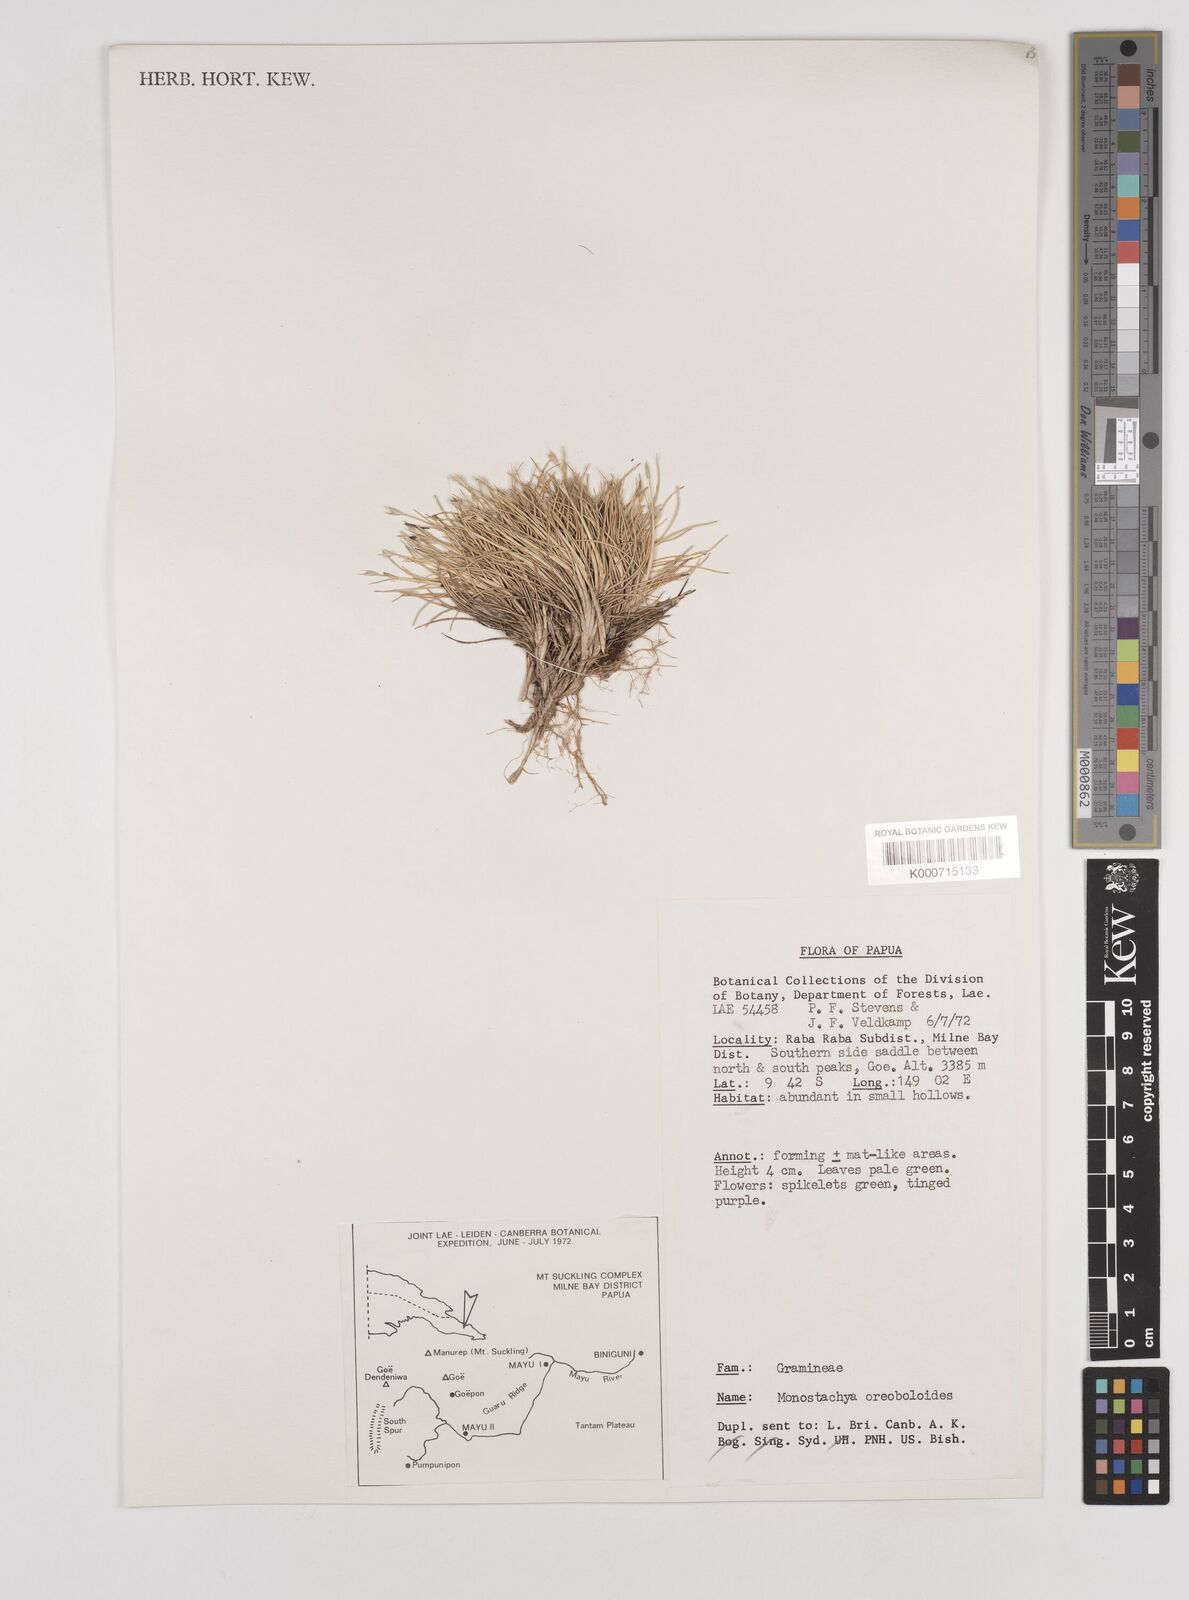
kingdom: Plantae
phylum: Tracheophyta
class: Liliopsida
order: Poales
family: Poaceae
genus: Rytidosperma
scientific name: Rytidosperma oreoboloides
